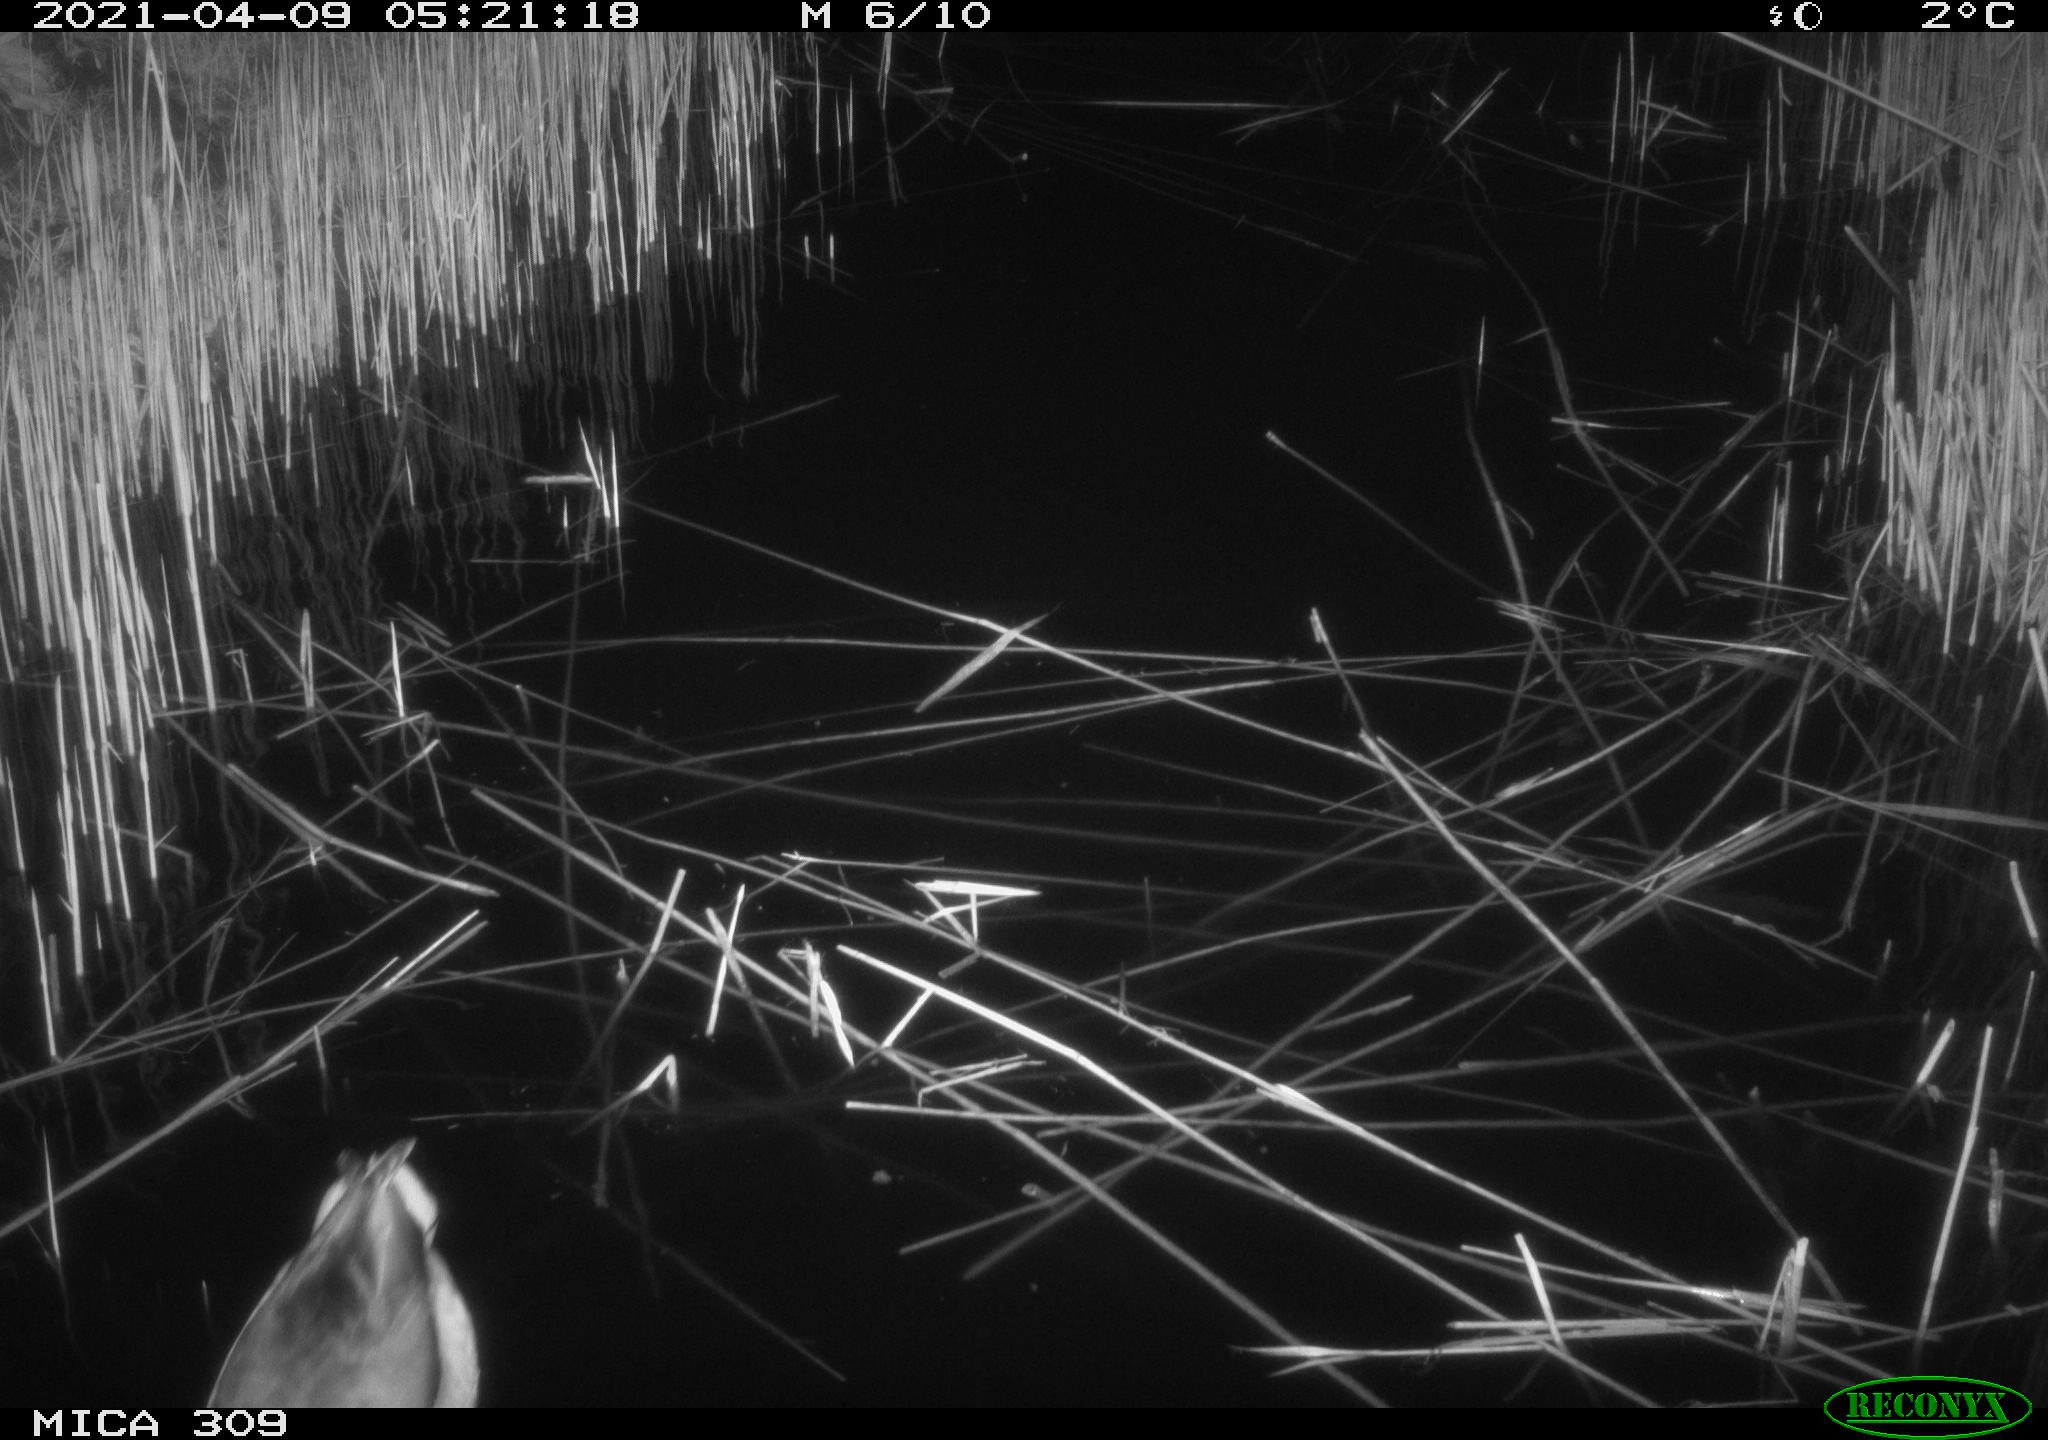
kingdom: Animalia
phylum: Chordata
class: Aves
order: Anseriformes
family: Anatidae
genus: Anas
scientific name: Anas platyrhynchos
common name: Mallard
